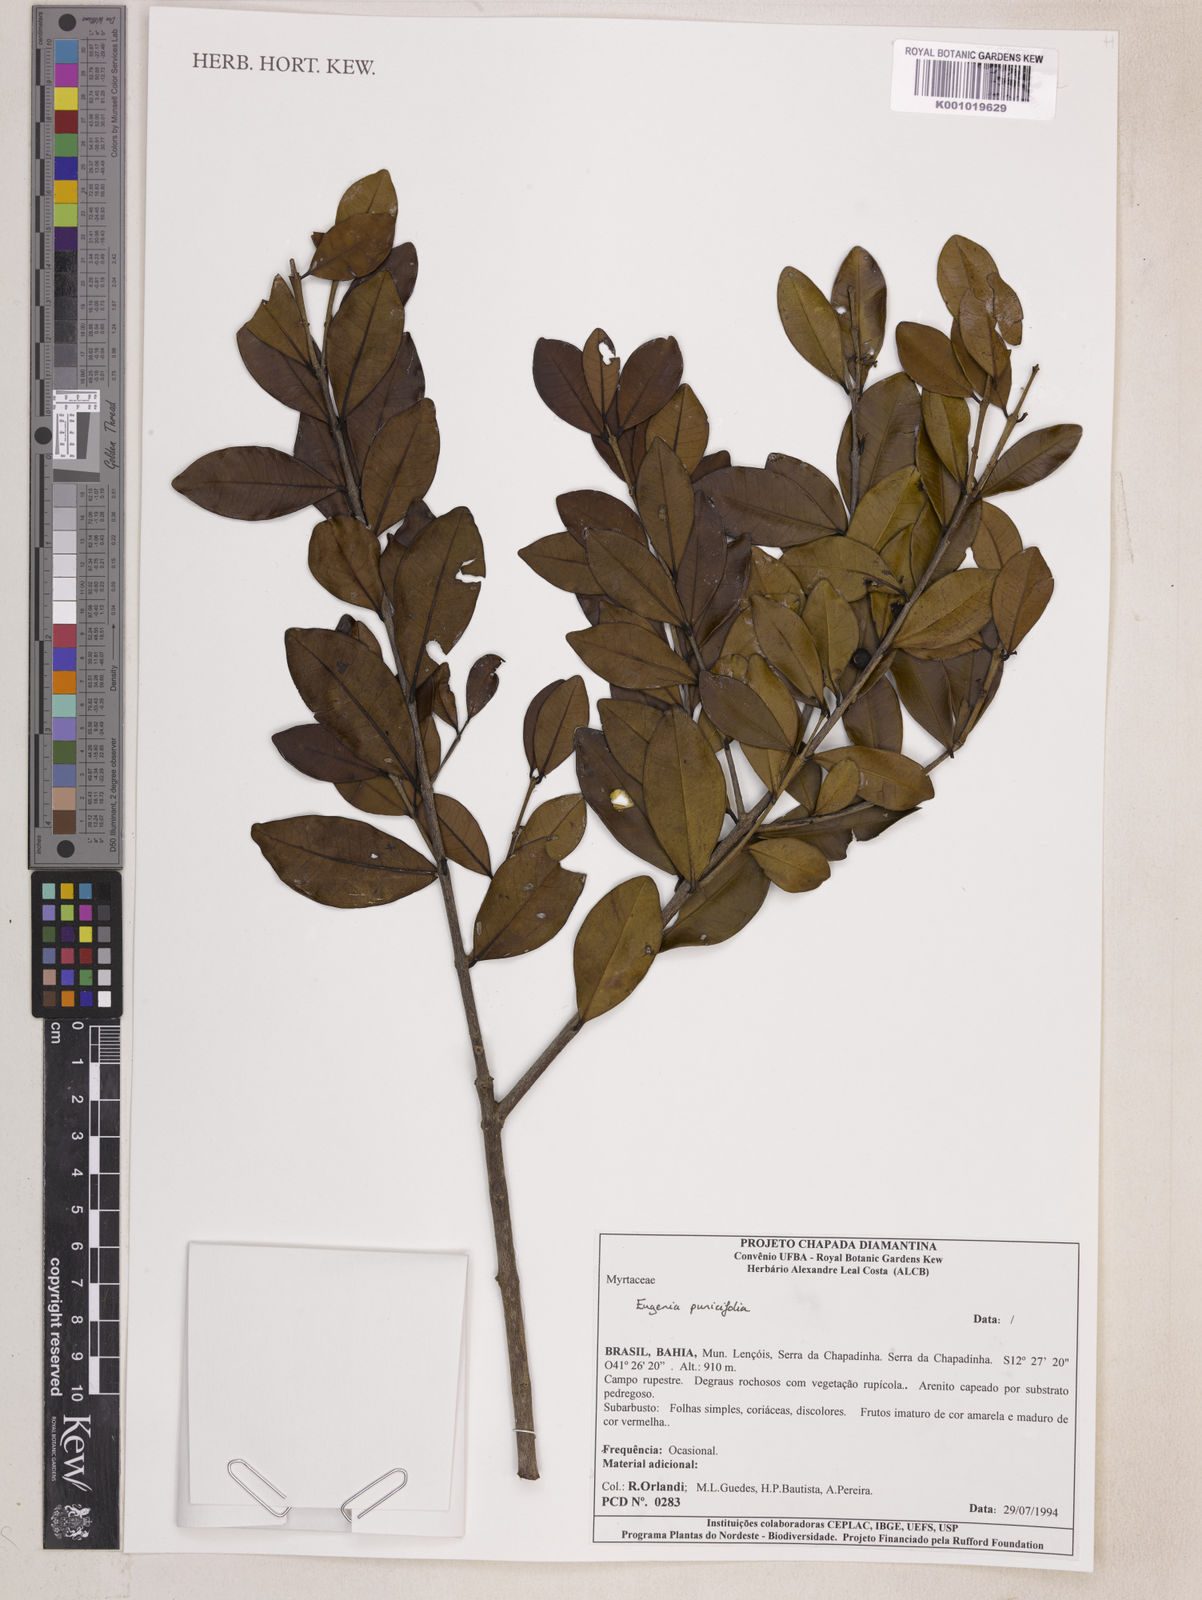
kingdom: Plantae
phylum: Tracheophyta
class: Magnoliopsida
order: Myrtales
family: Myrtaceae
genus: Eugenia
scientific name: Eugenia punicifolia
